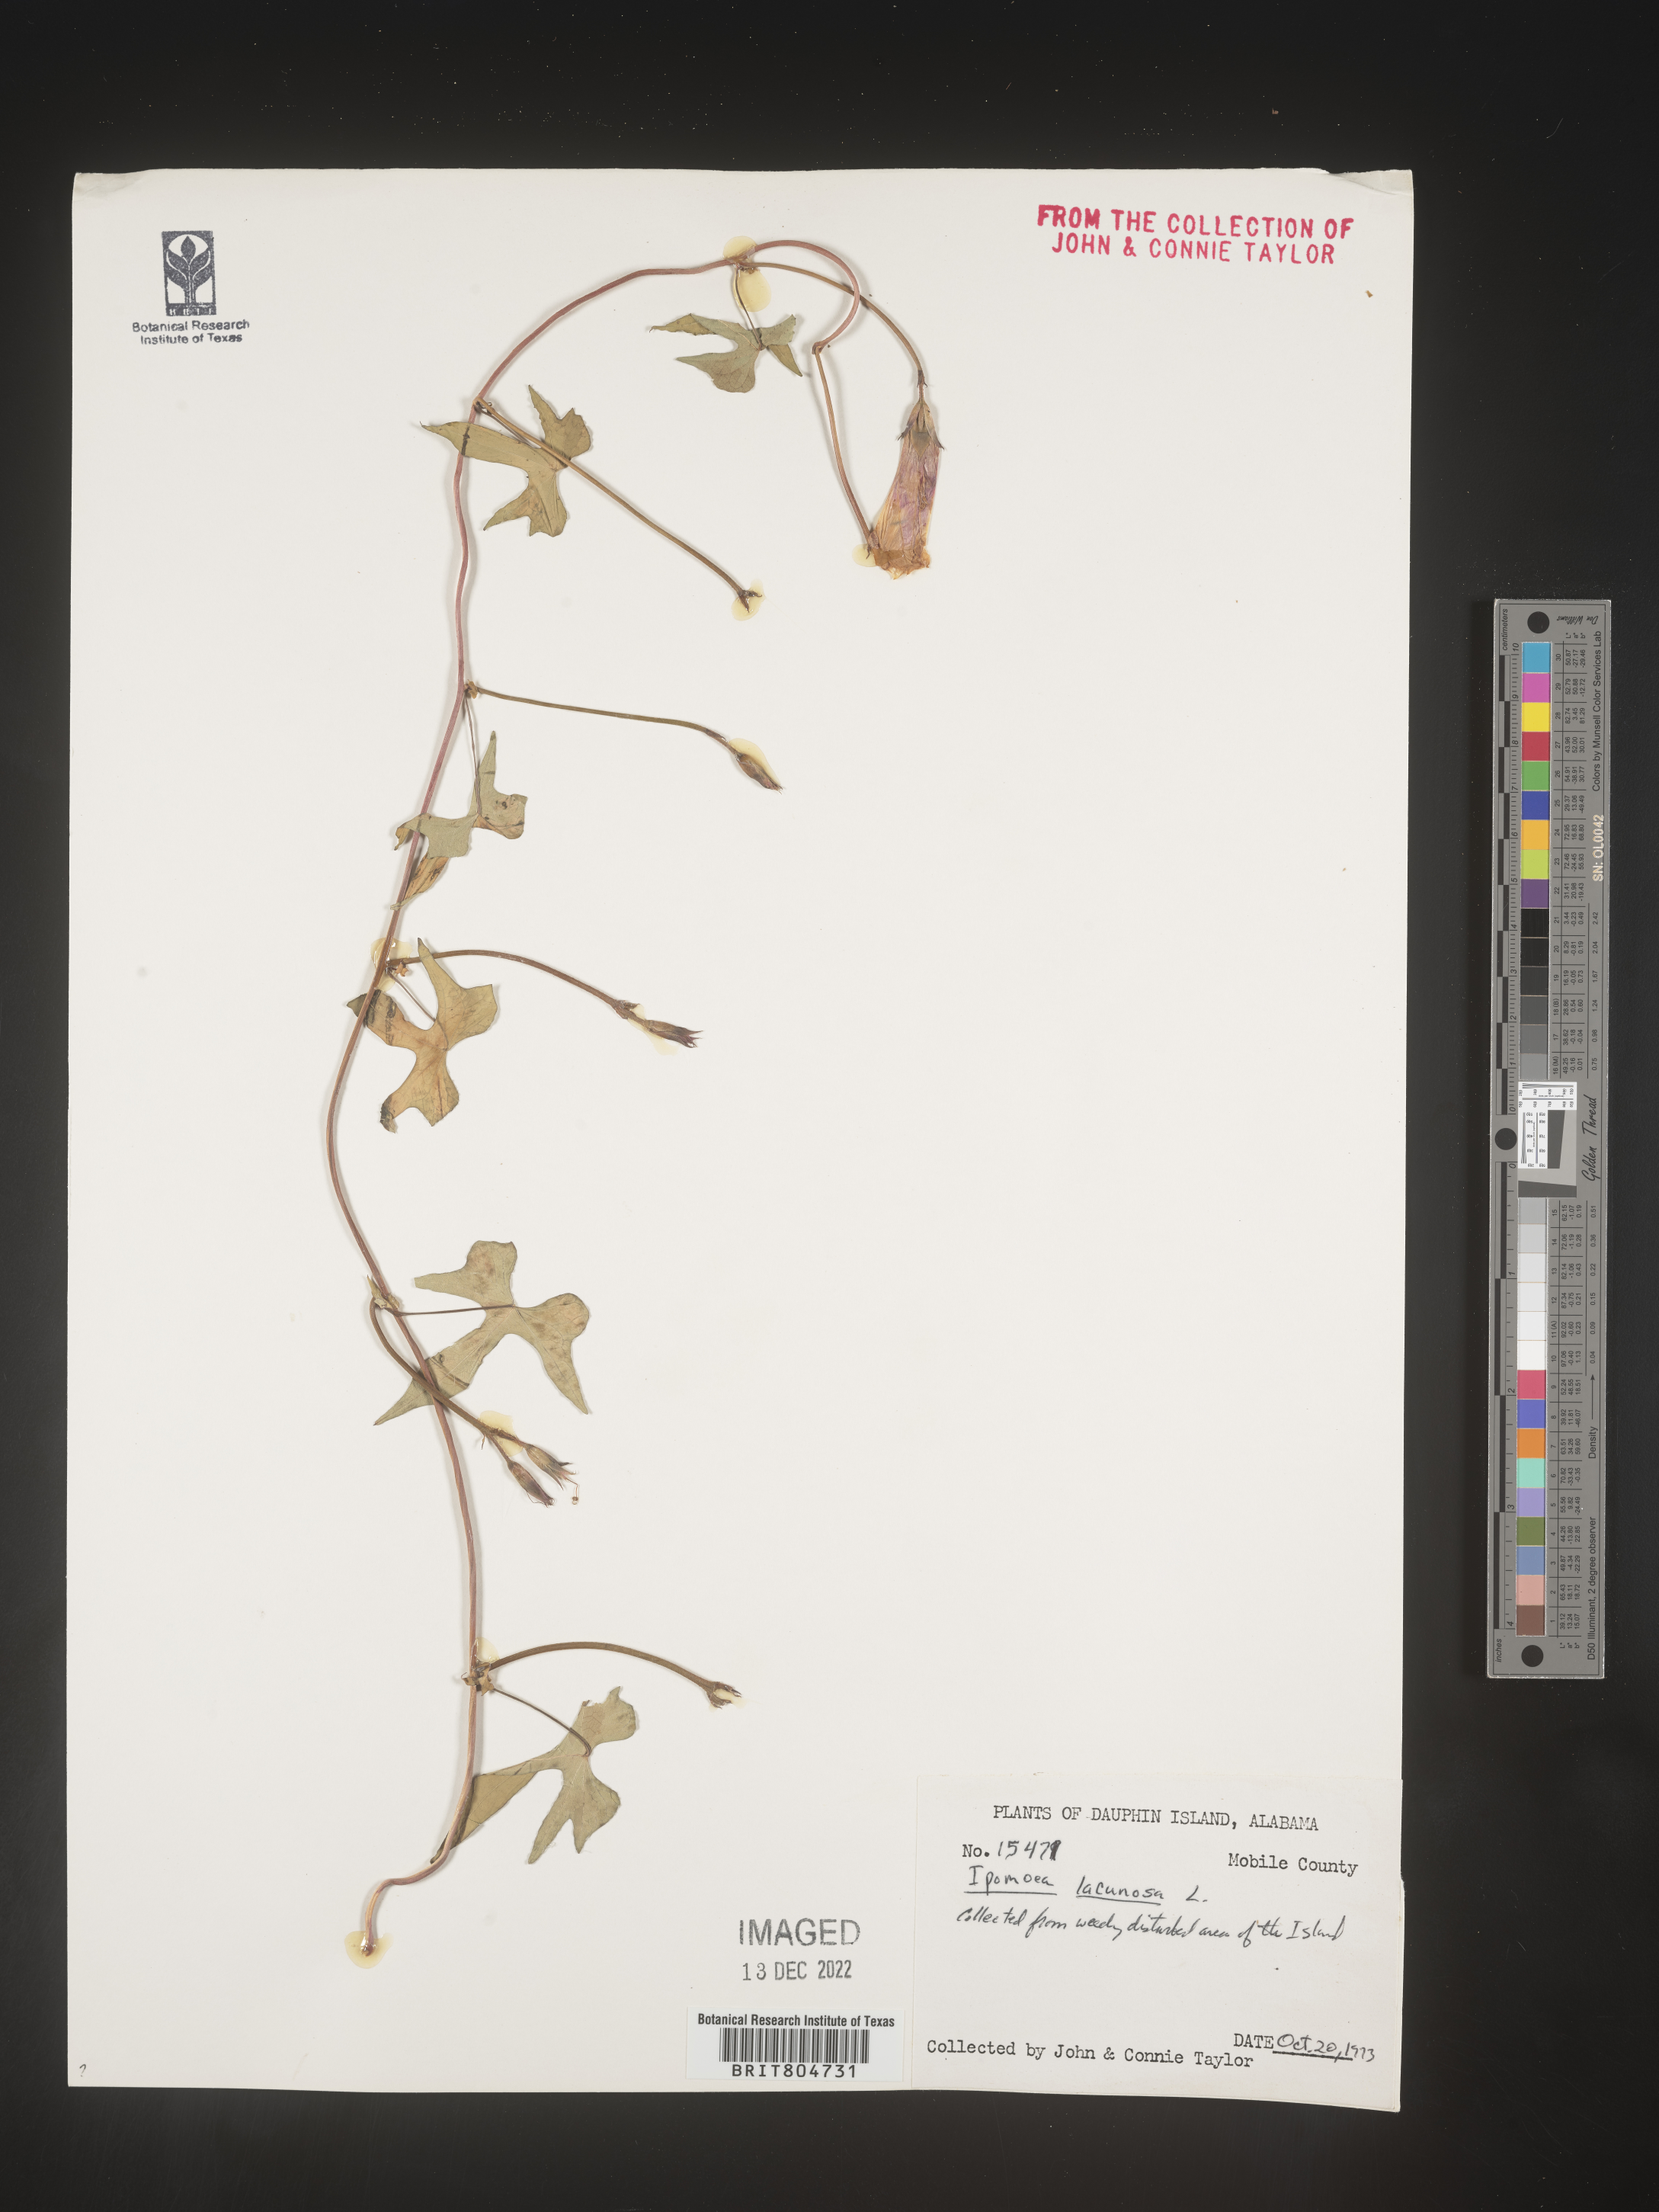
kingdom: Plantae
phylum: Tracheophyta
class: Magnoliopsida
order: Solanales
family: Convolvulaceae
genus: Ipomoea
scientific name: Ipomoea lacunosa
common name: White morning-glory
